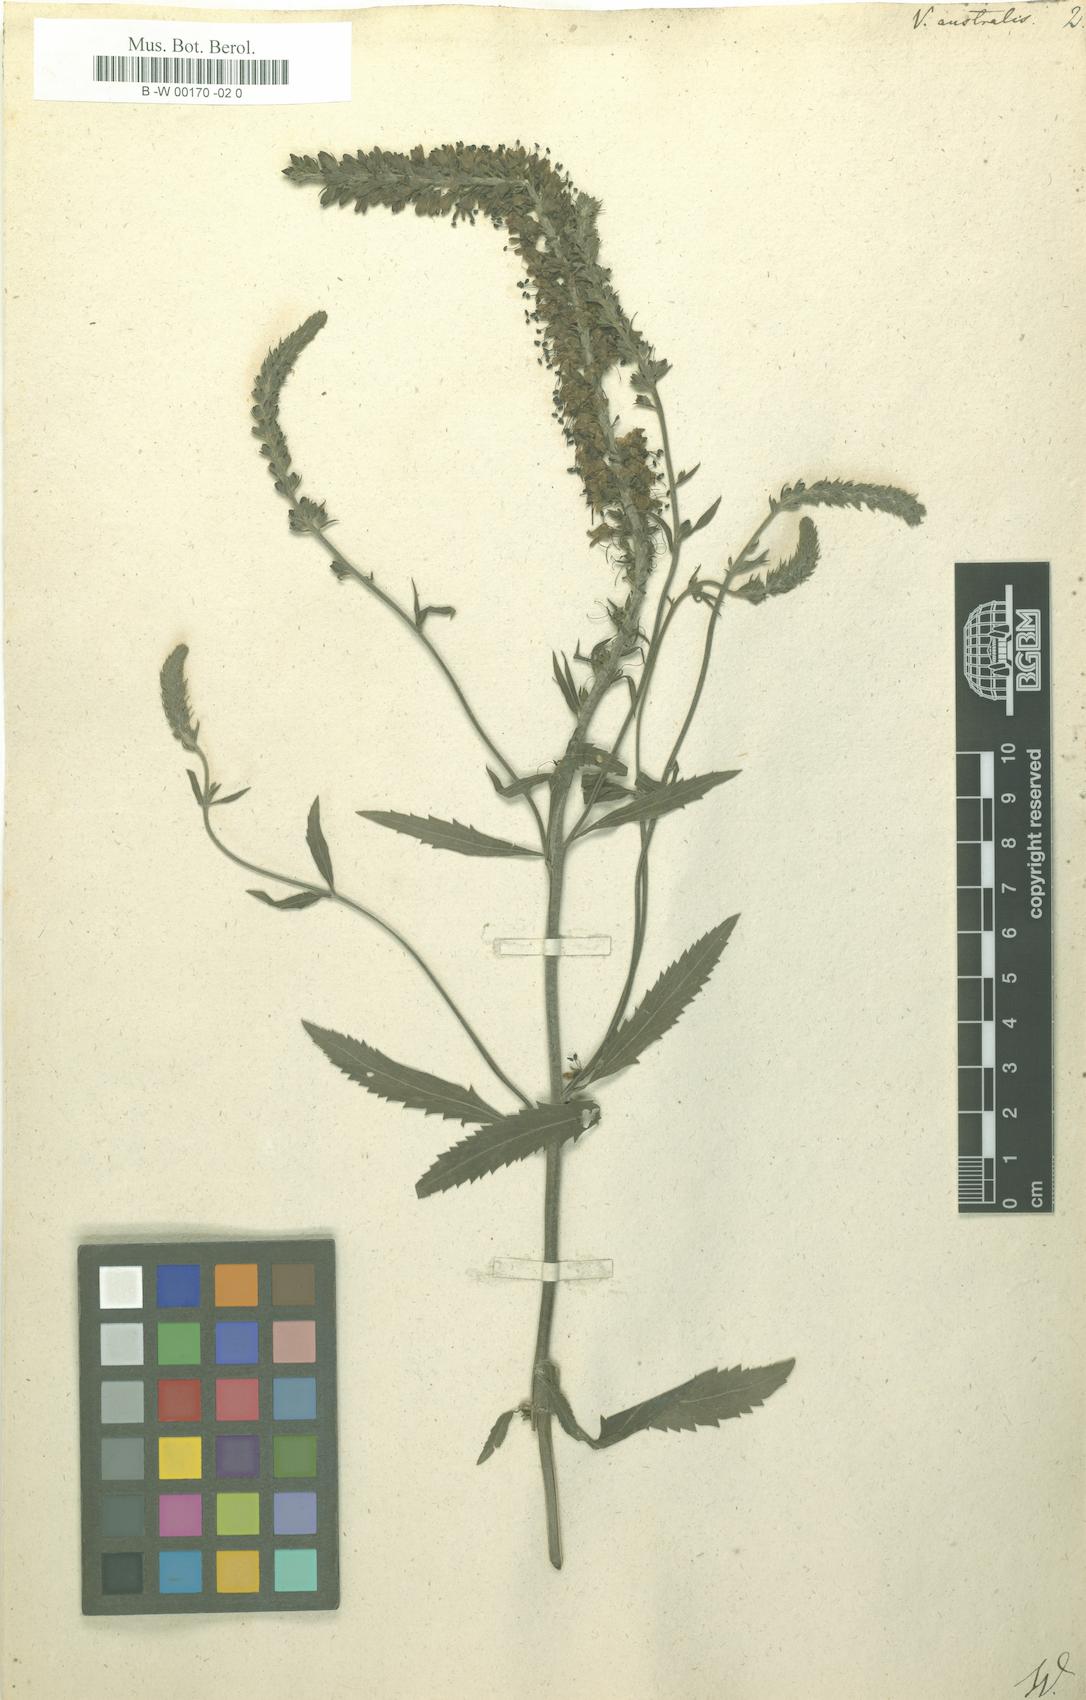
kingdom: Plantae
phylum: Tracheophyta
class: Magnoliopsida
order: Lamiales
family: Plantaginaceae
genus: Veronica
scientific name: Veronica spicata
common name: Spiked speedwell
